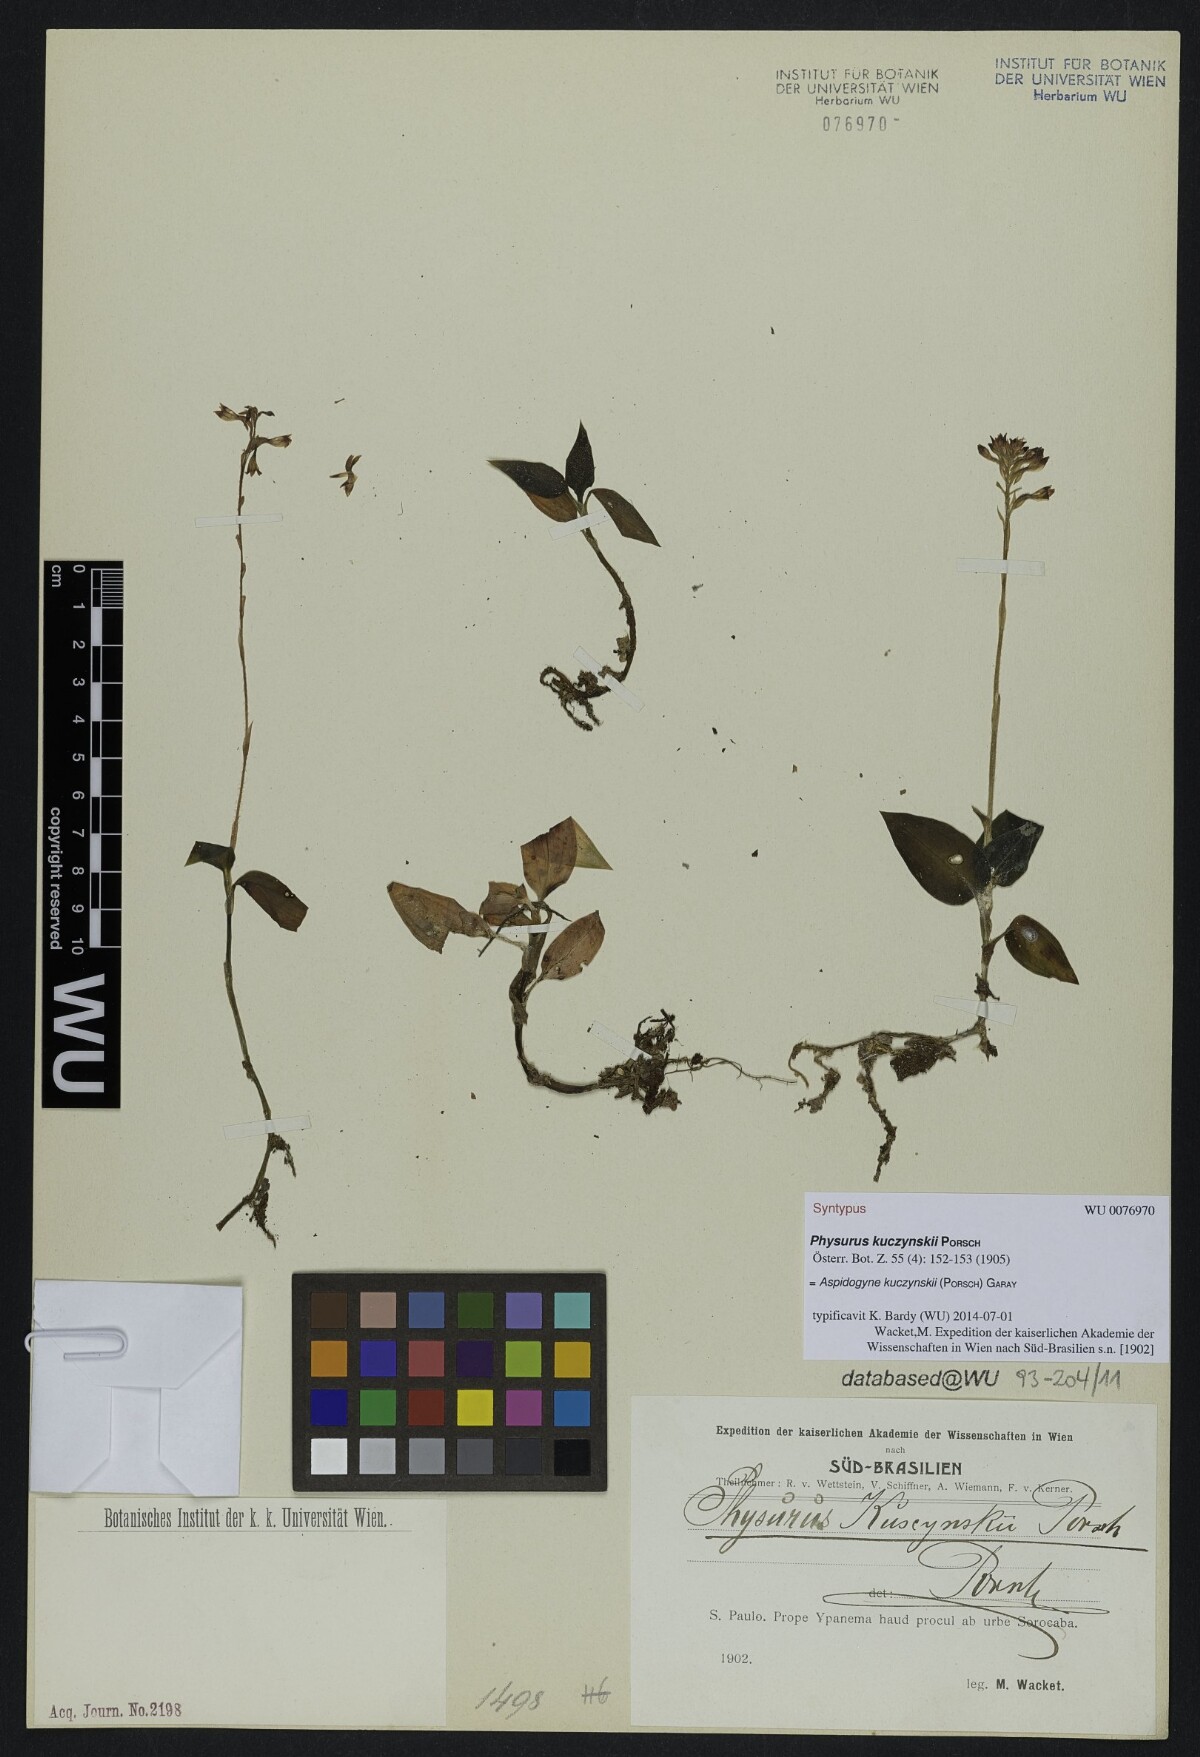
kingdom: Plantae
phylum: Tracheophyta
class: Liliopsida
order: Asparagales
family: Orchidaceae
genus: Aspidogyne
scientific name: Aspidogyne kuczynskii
